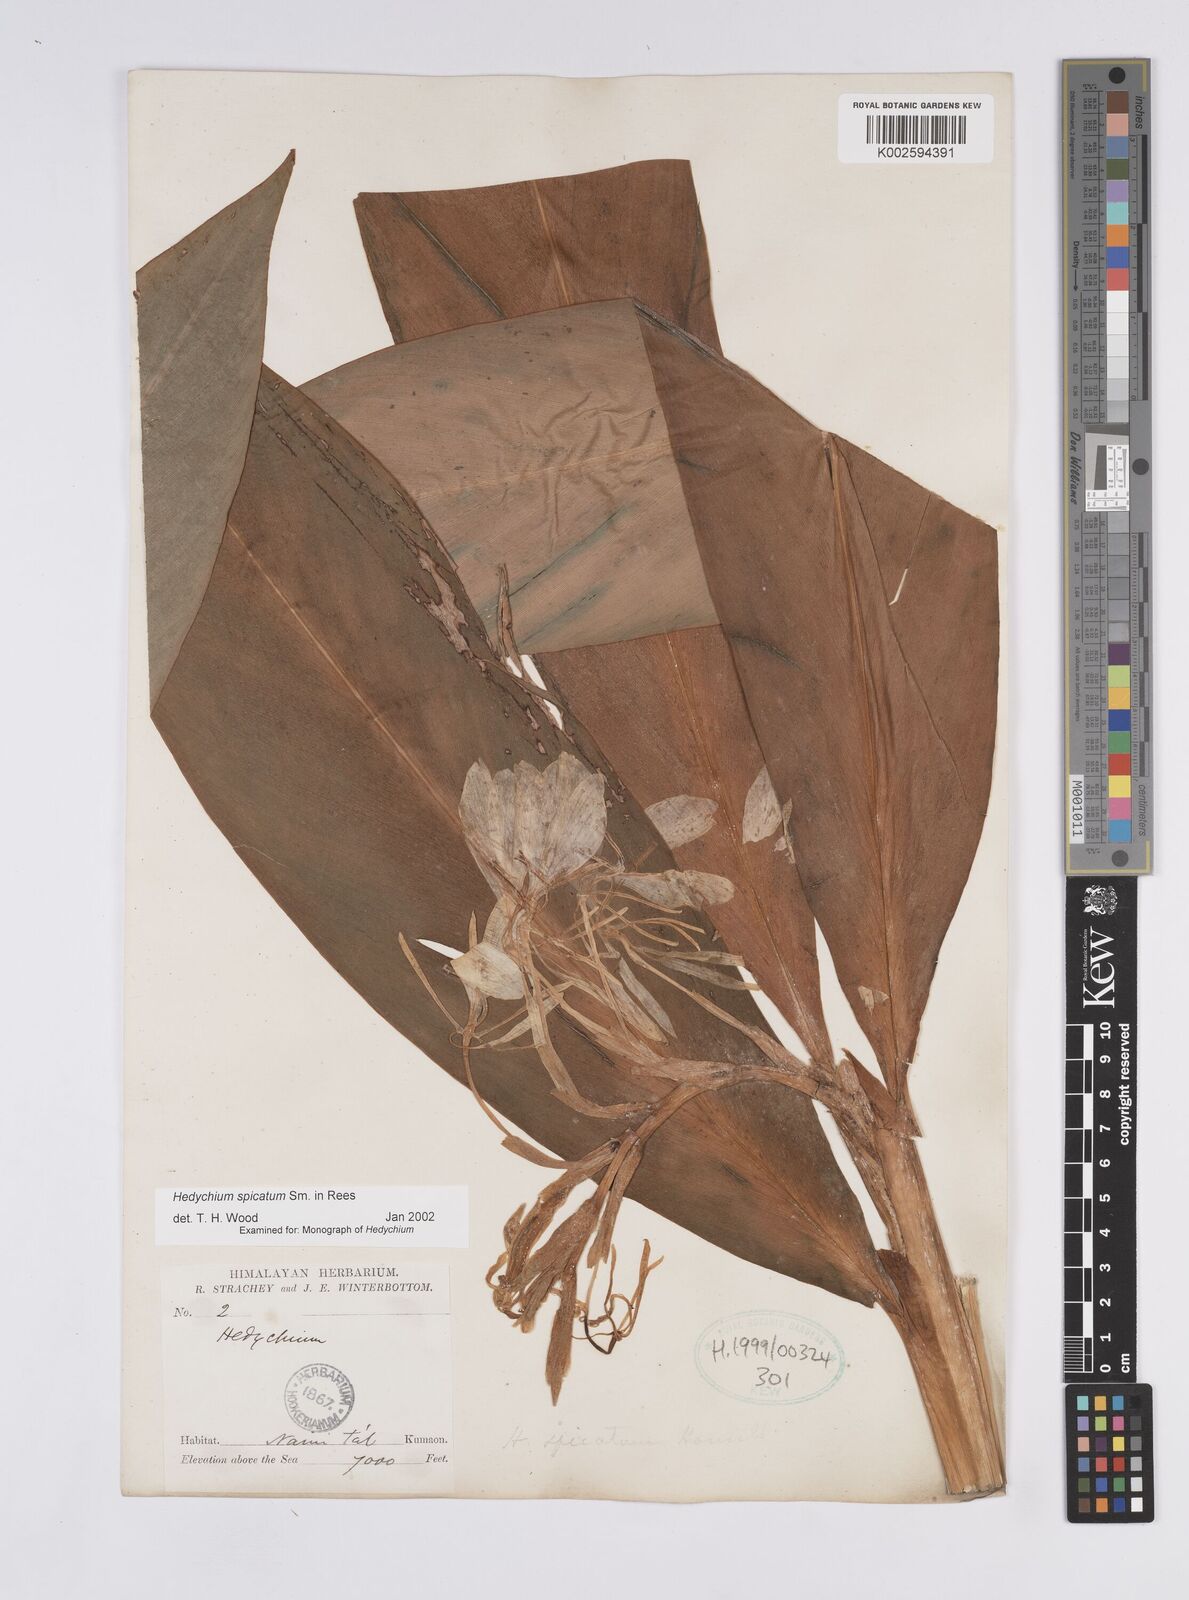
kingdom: Plantae
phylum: Tracheophyta
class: Liliopsida
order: Zingiberales
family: Zingiberaceae
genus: Hedychium
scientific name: Hedychium spicatum
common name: Spiked ginger-lily
